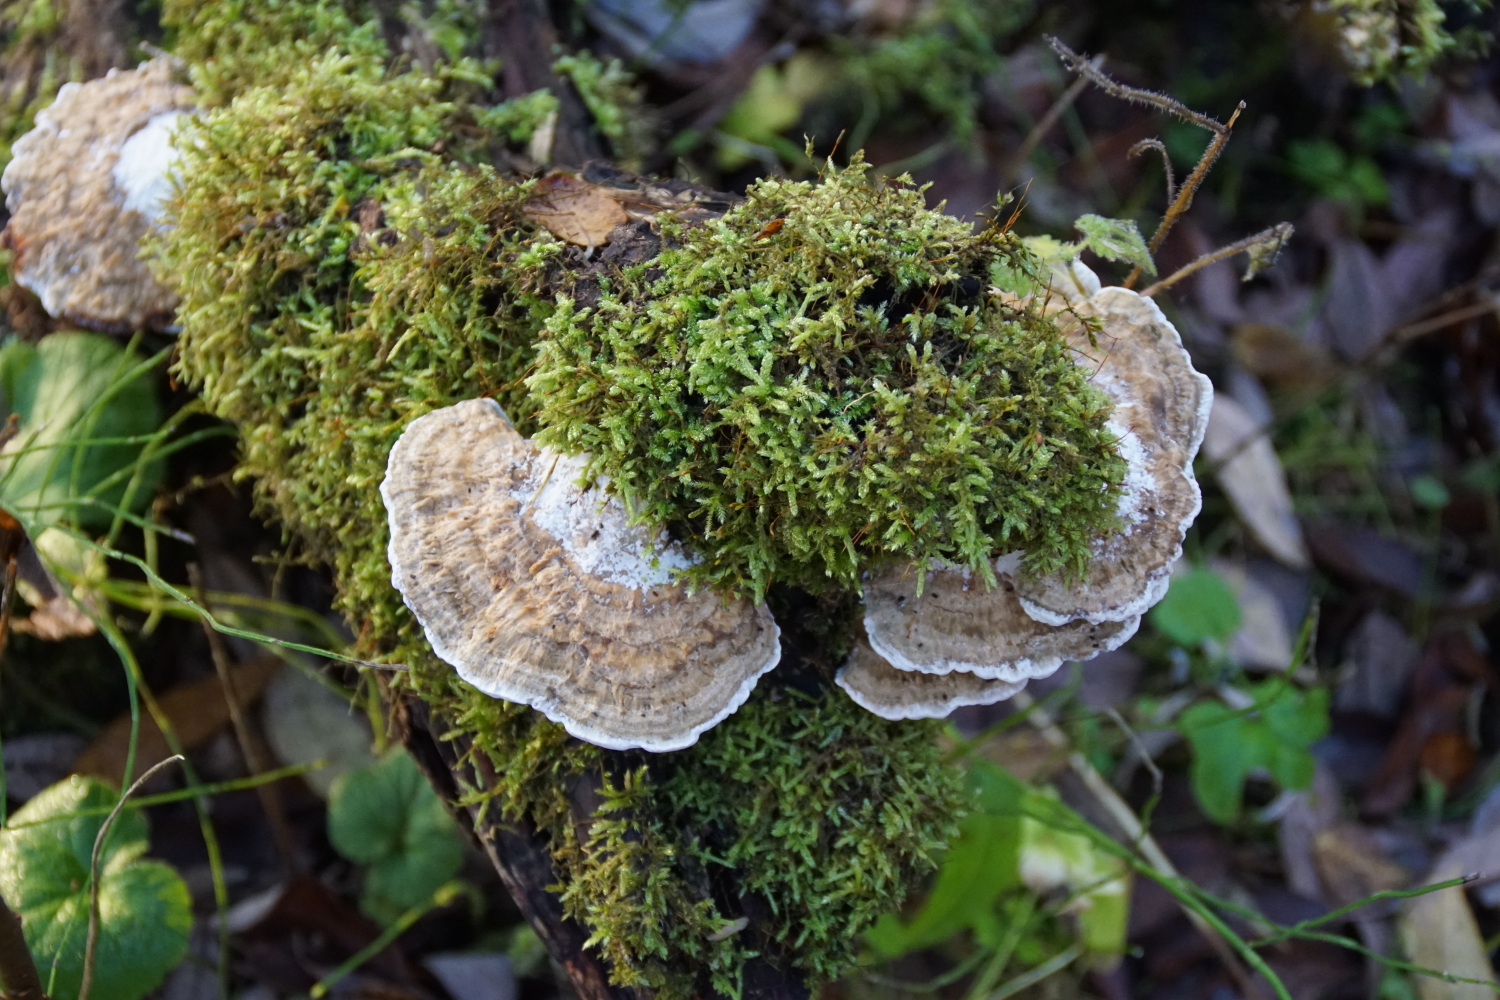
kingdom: Fungi
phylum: Basidiomycota
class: Agaricomycetes
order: Polyporales
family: Polyporaceae
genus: Daedaleopsis
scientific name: Daedaleopsis confragosa
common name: rødmende læderporesvamp
